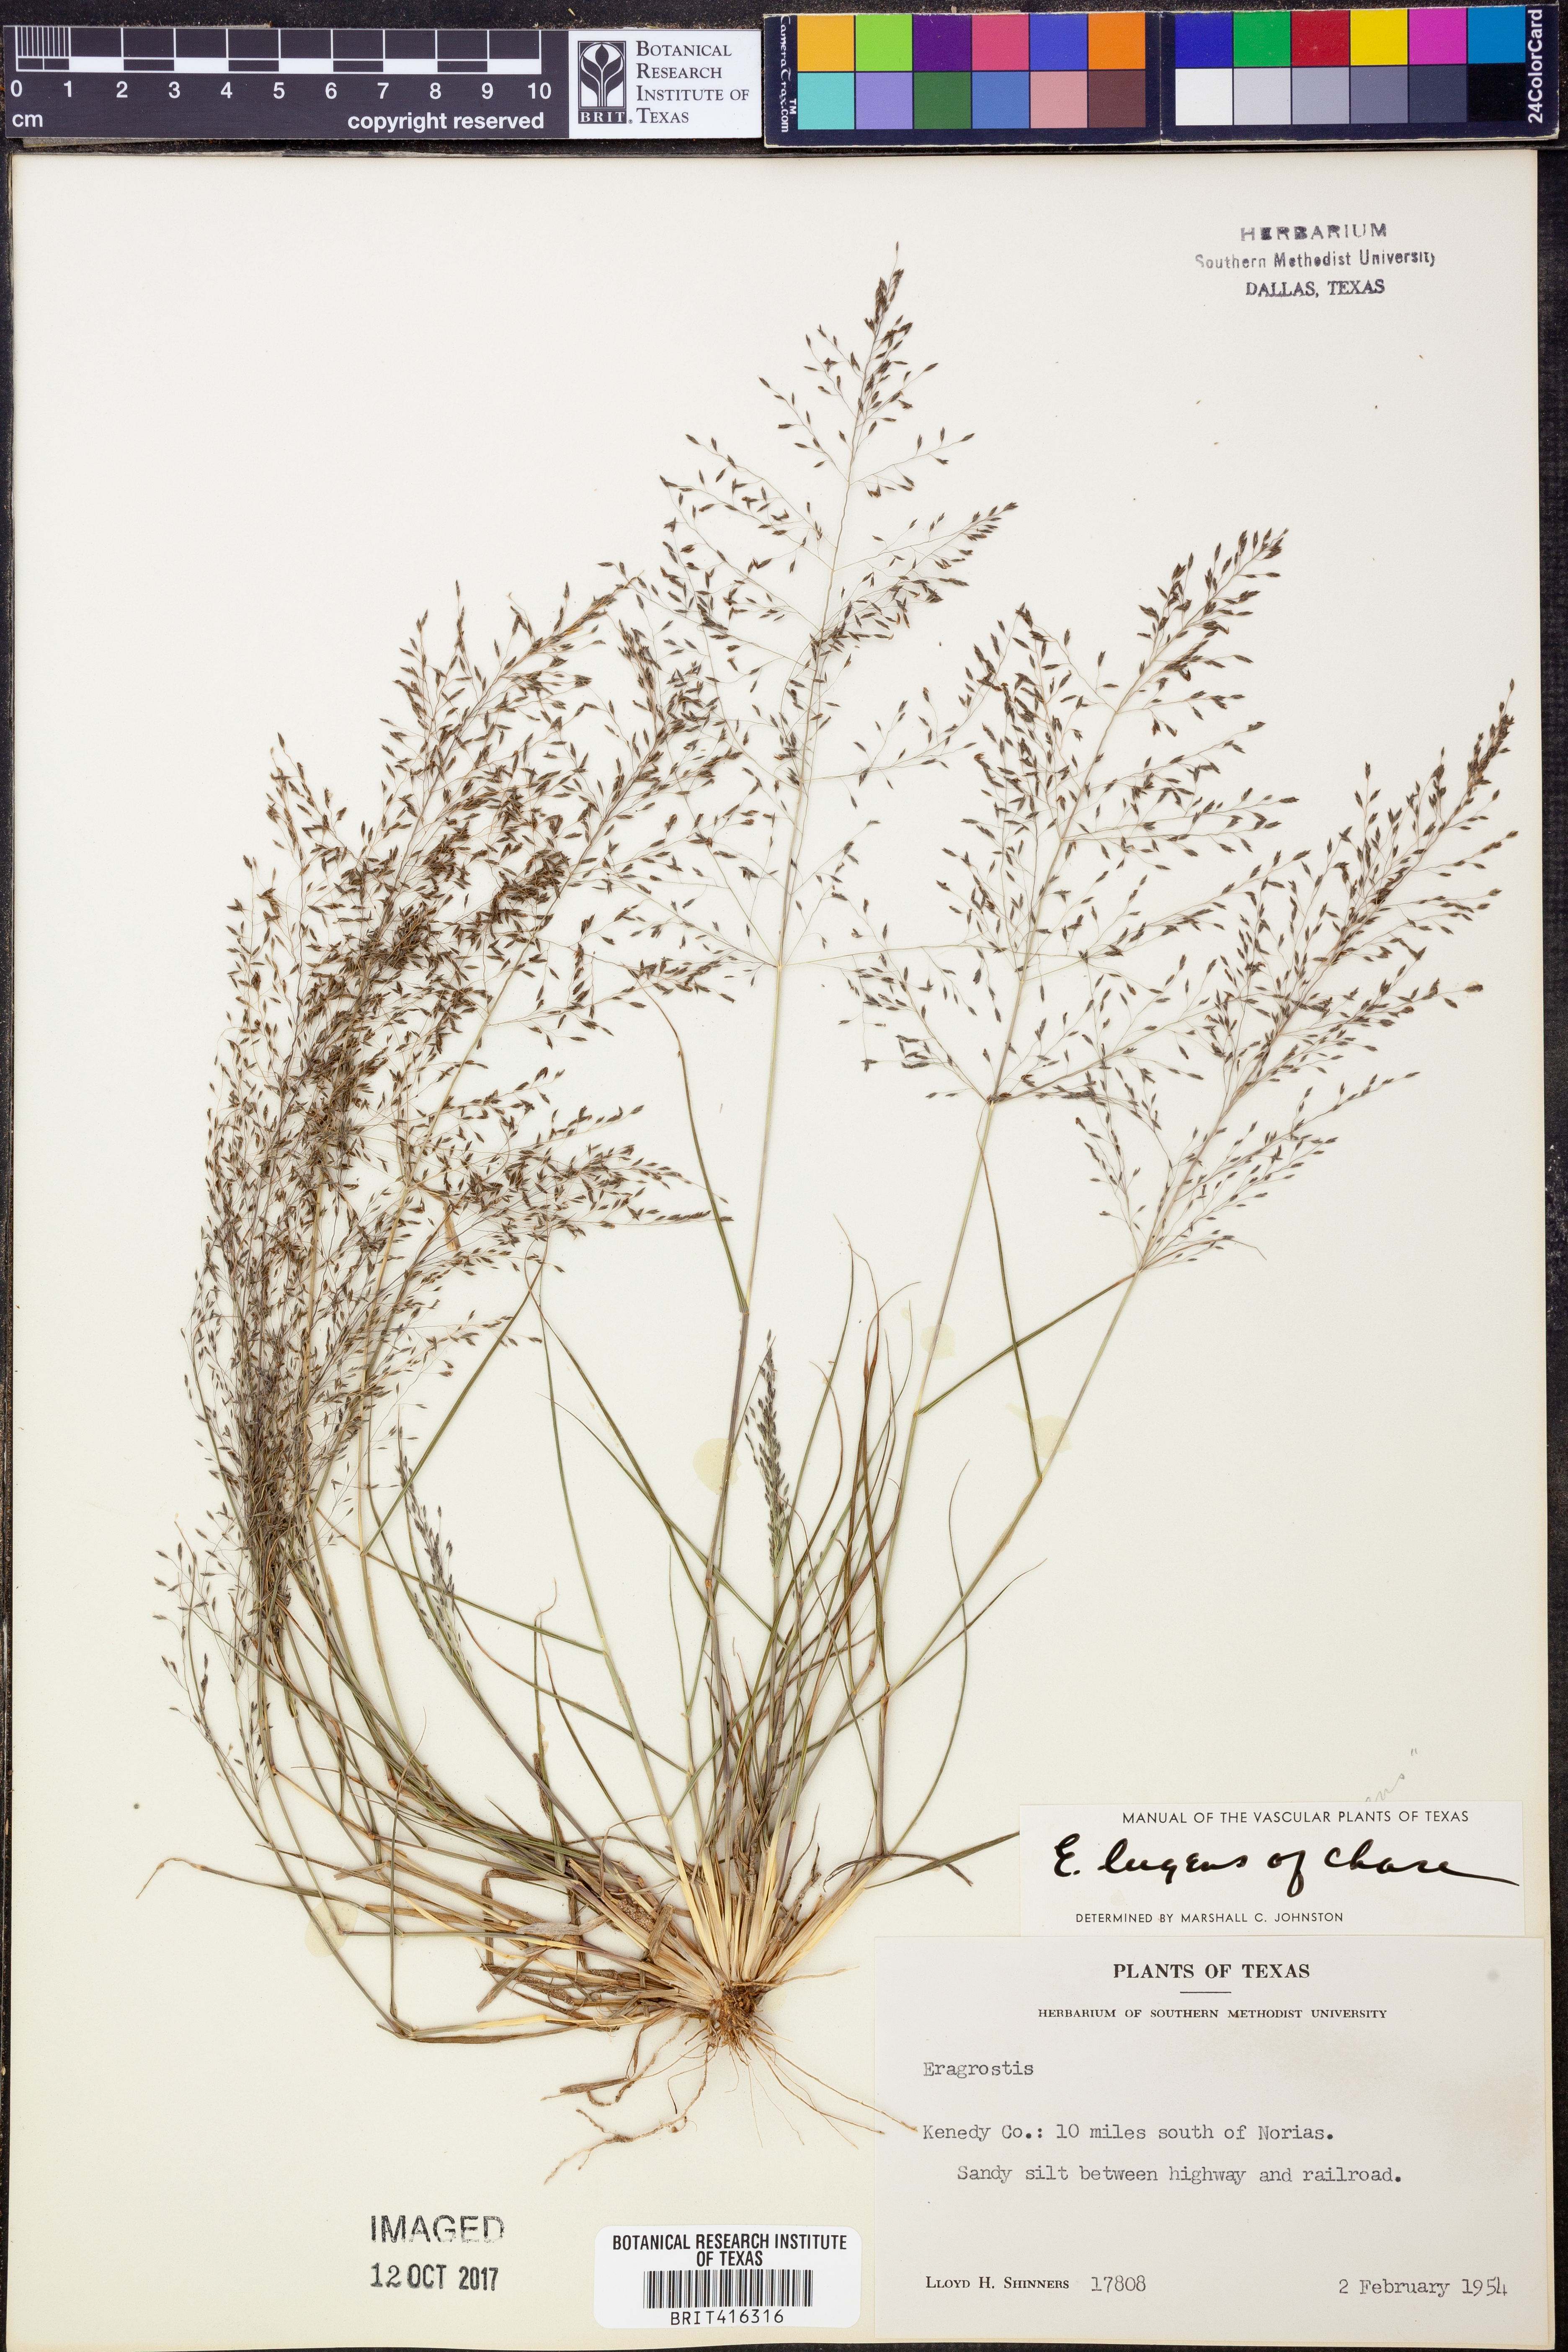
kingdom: Plantae
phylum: Tracheophyta
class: Liliopsida
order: Poales
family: Poaceae
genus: Eragrostis
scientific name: Eragrostis
